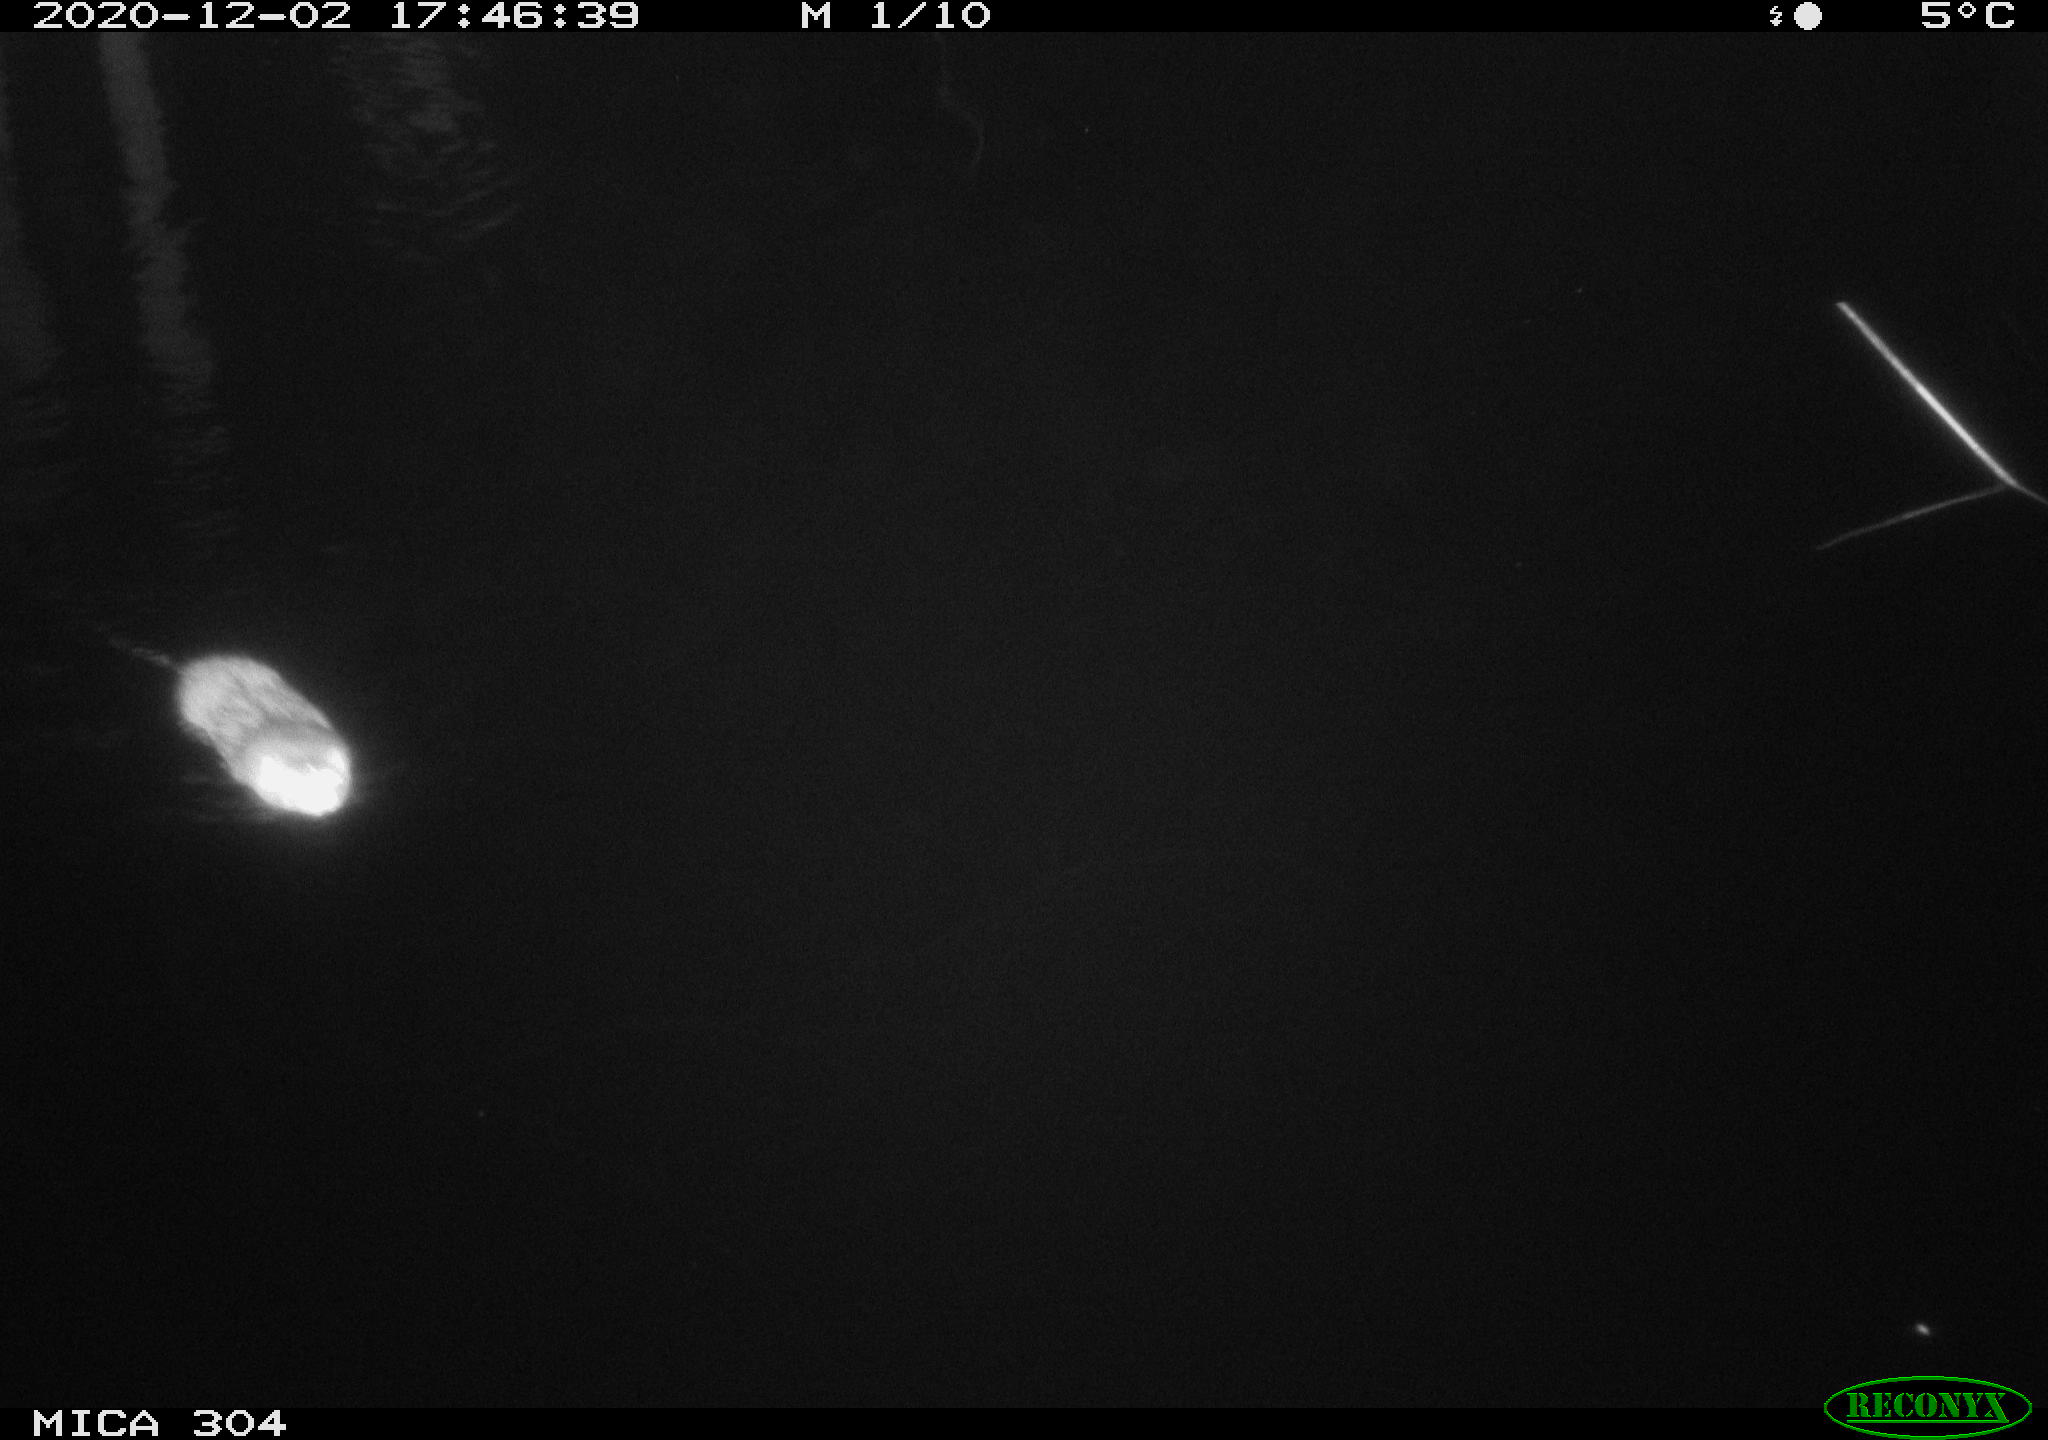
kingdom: Animalia
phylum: Chordata
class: Mammalia
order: Rodentia
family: Muridae
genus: Rattus
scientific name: Rattus norvegicus
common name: Brown rat
